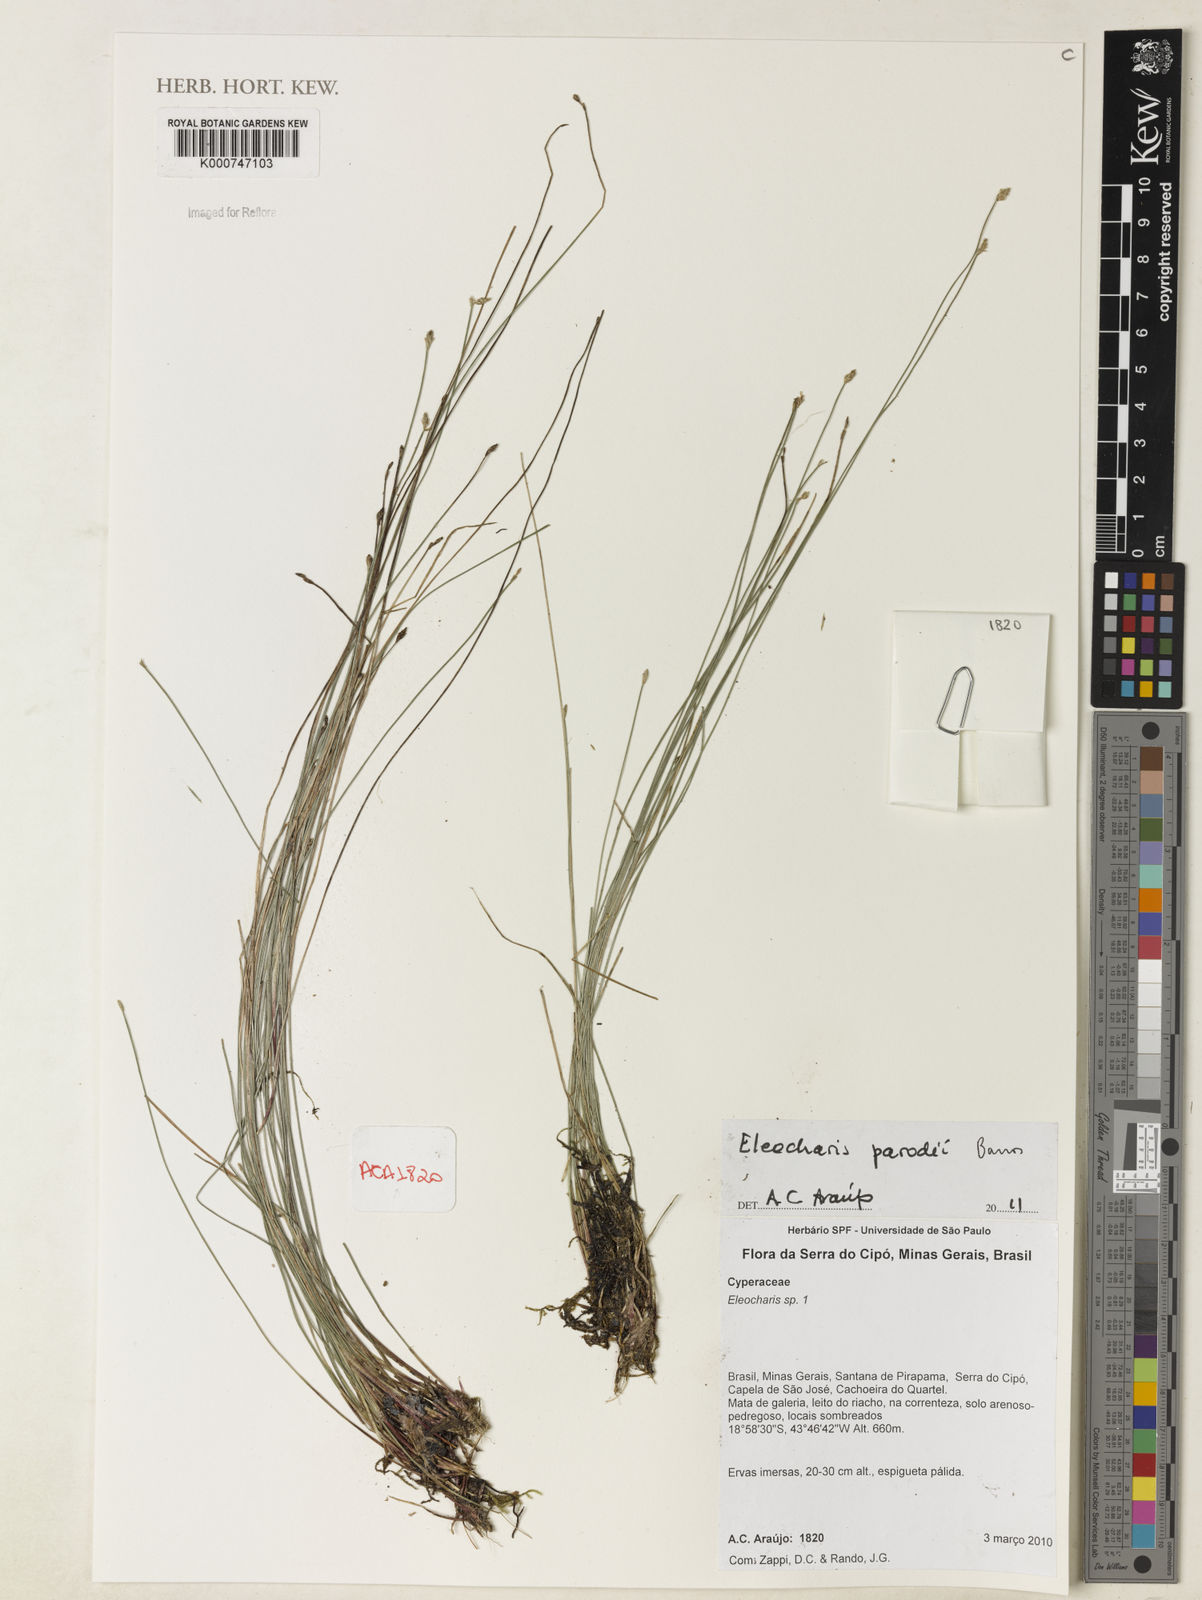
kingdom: Plantae
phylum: Tracheophyta
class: Liliopsida
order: Poales
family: Cyperaceae
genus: Eleocharis
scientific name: Eleocharis parodii
